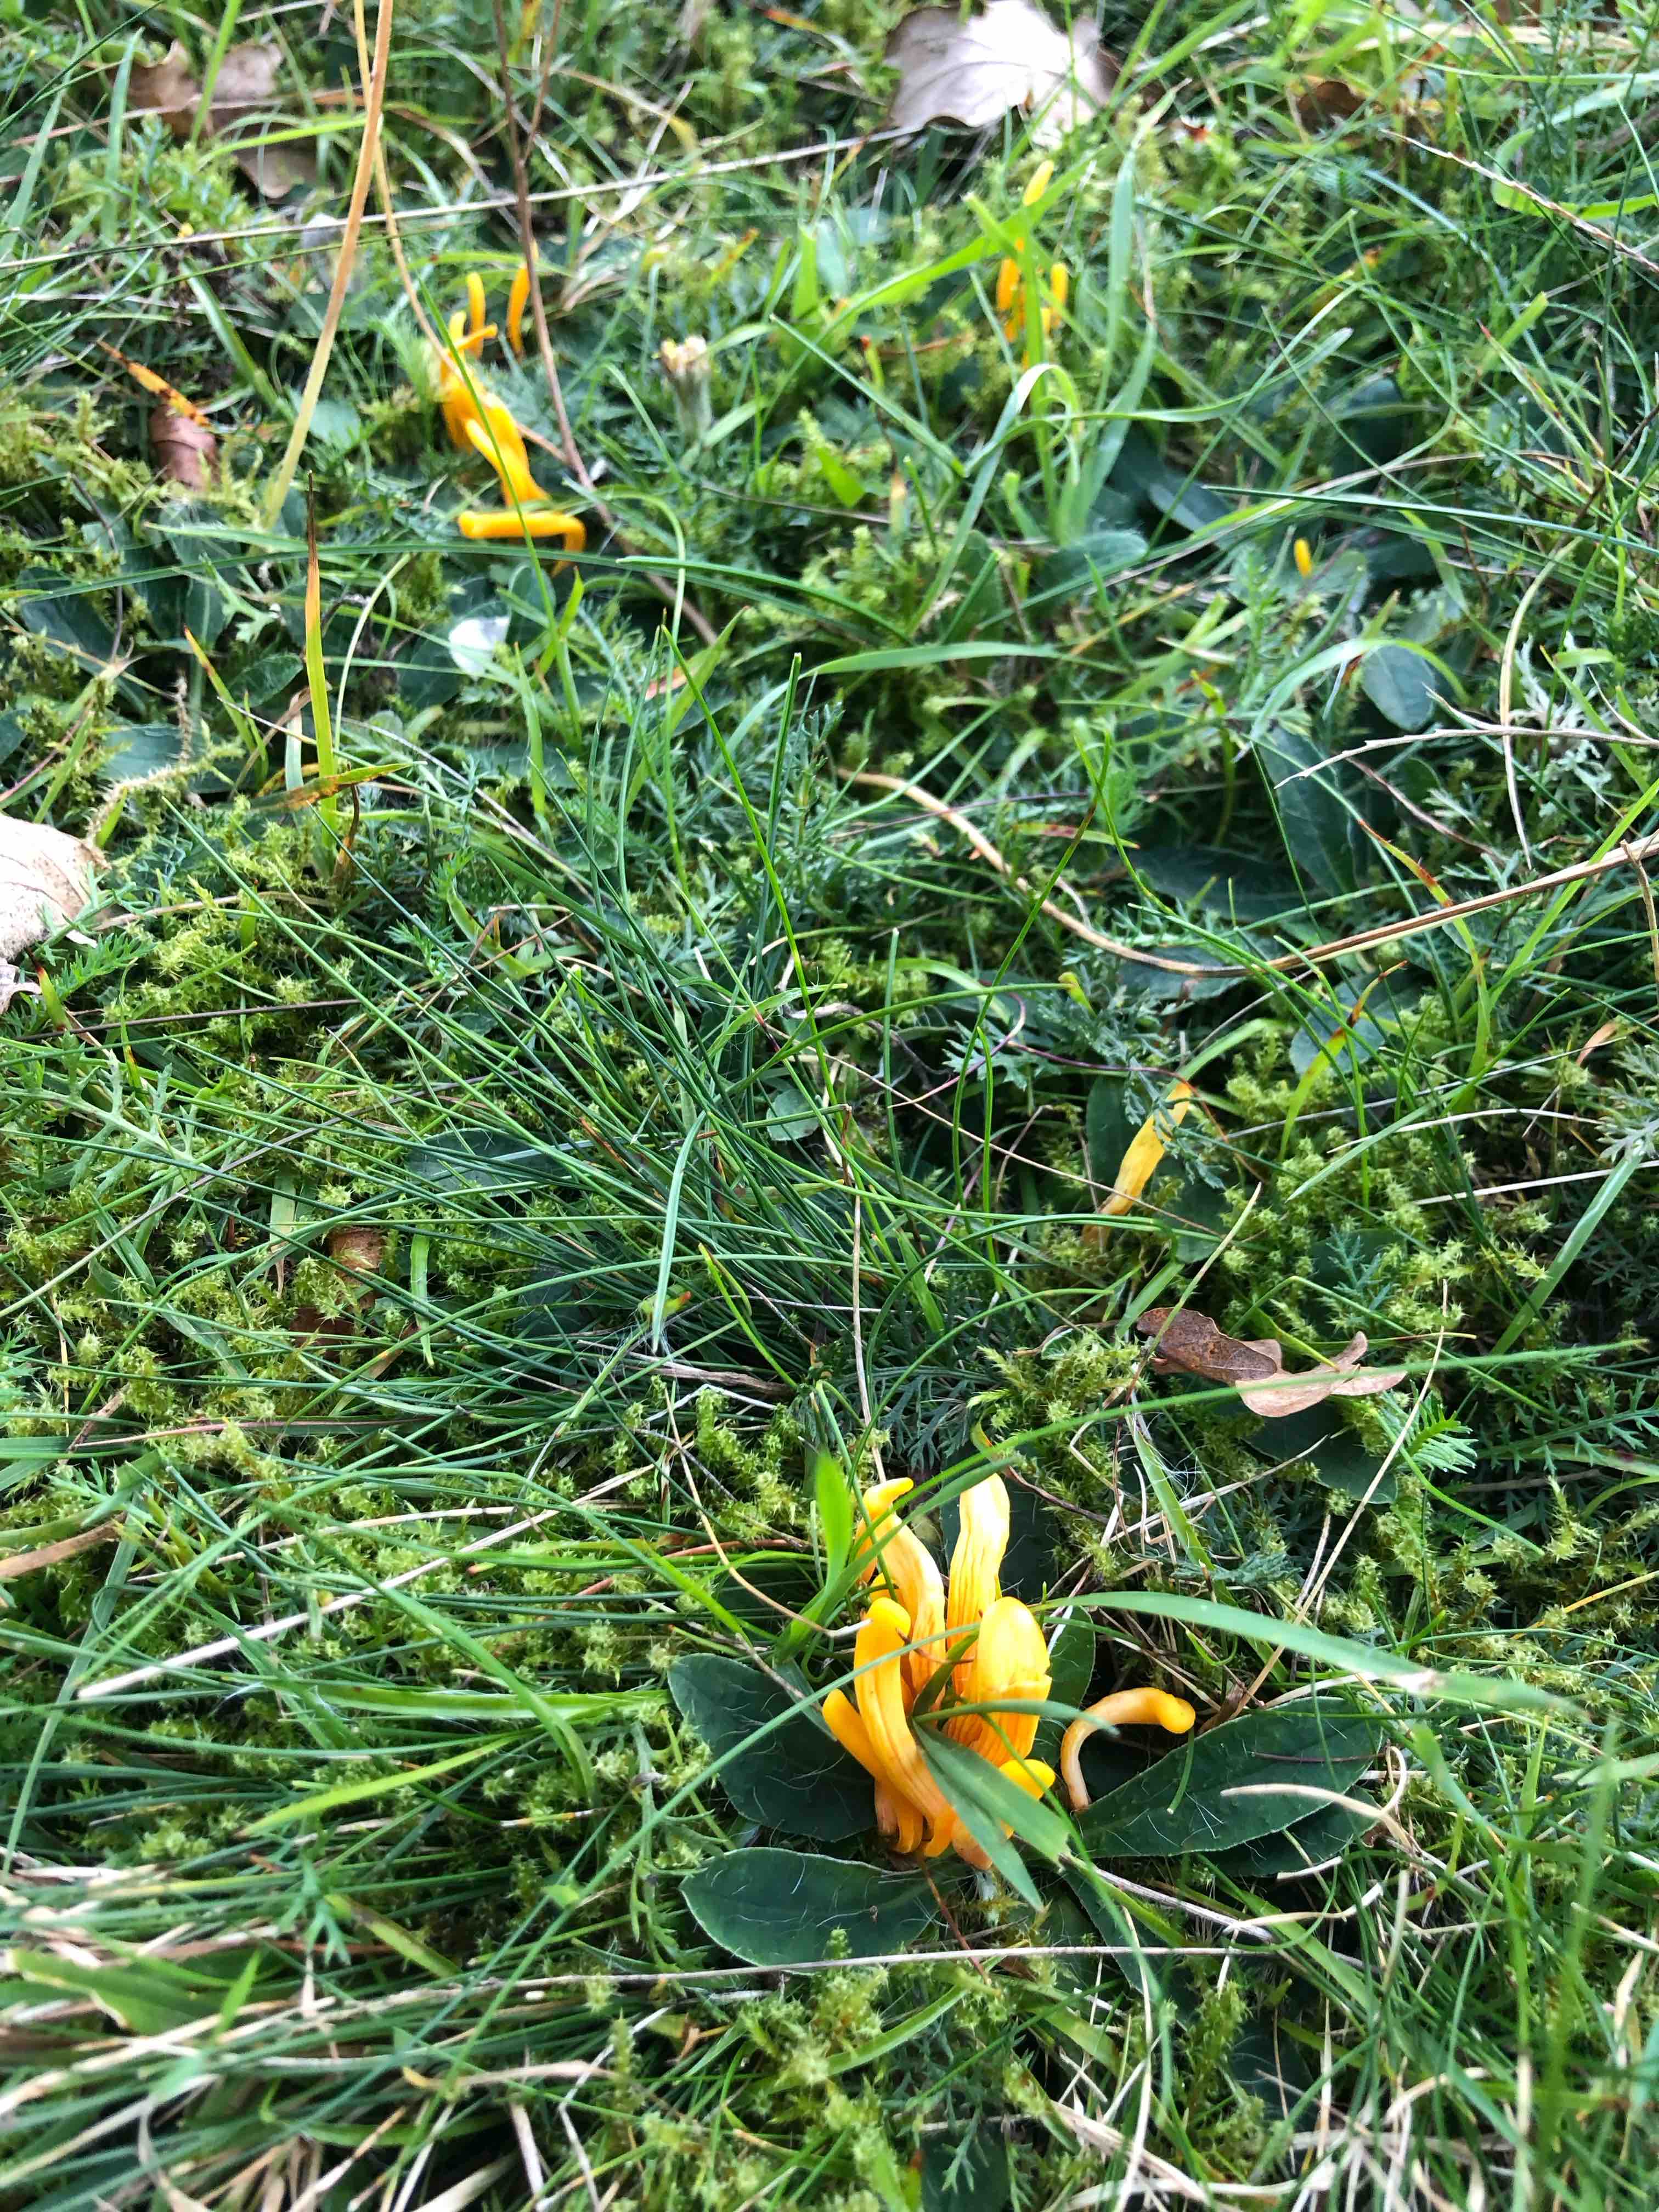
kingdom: Fungi
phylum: Basidiomycota
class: Agaricomycetes
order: Agaricales
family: Clavariaceae
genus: Clavulinopsis
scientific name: Clavulinopsis
